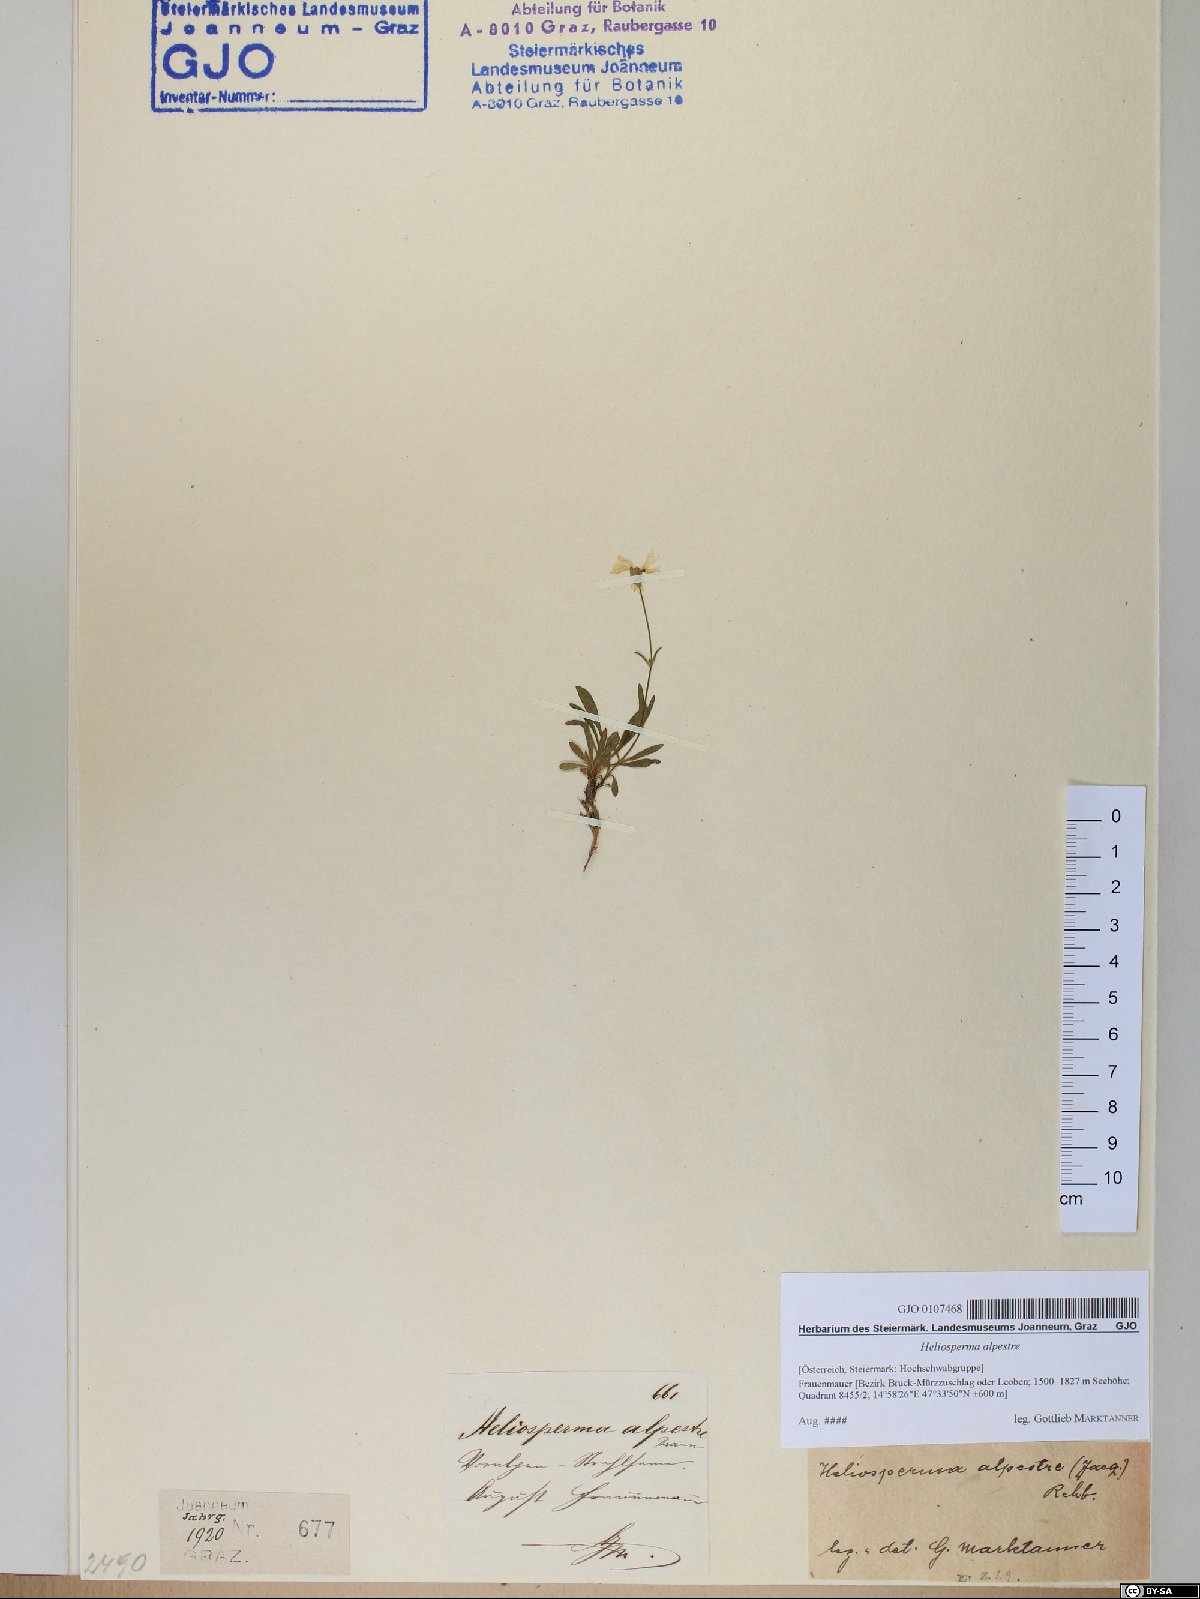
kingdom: Plantae
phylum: Tracheophyta
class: Magnoliopsida
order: Caryophyllales
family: Caryophyllaceae
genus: Heliosperma
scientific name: Heliosperma alpestre
